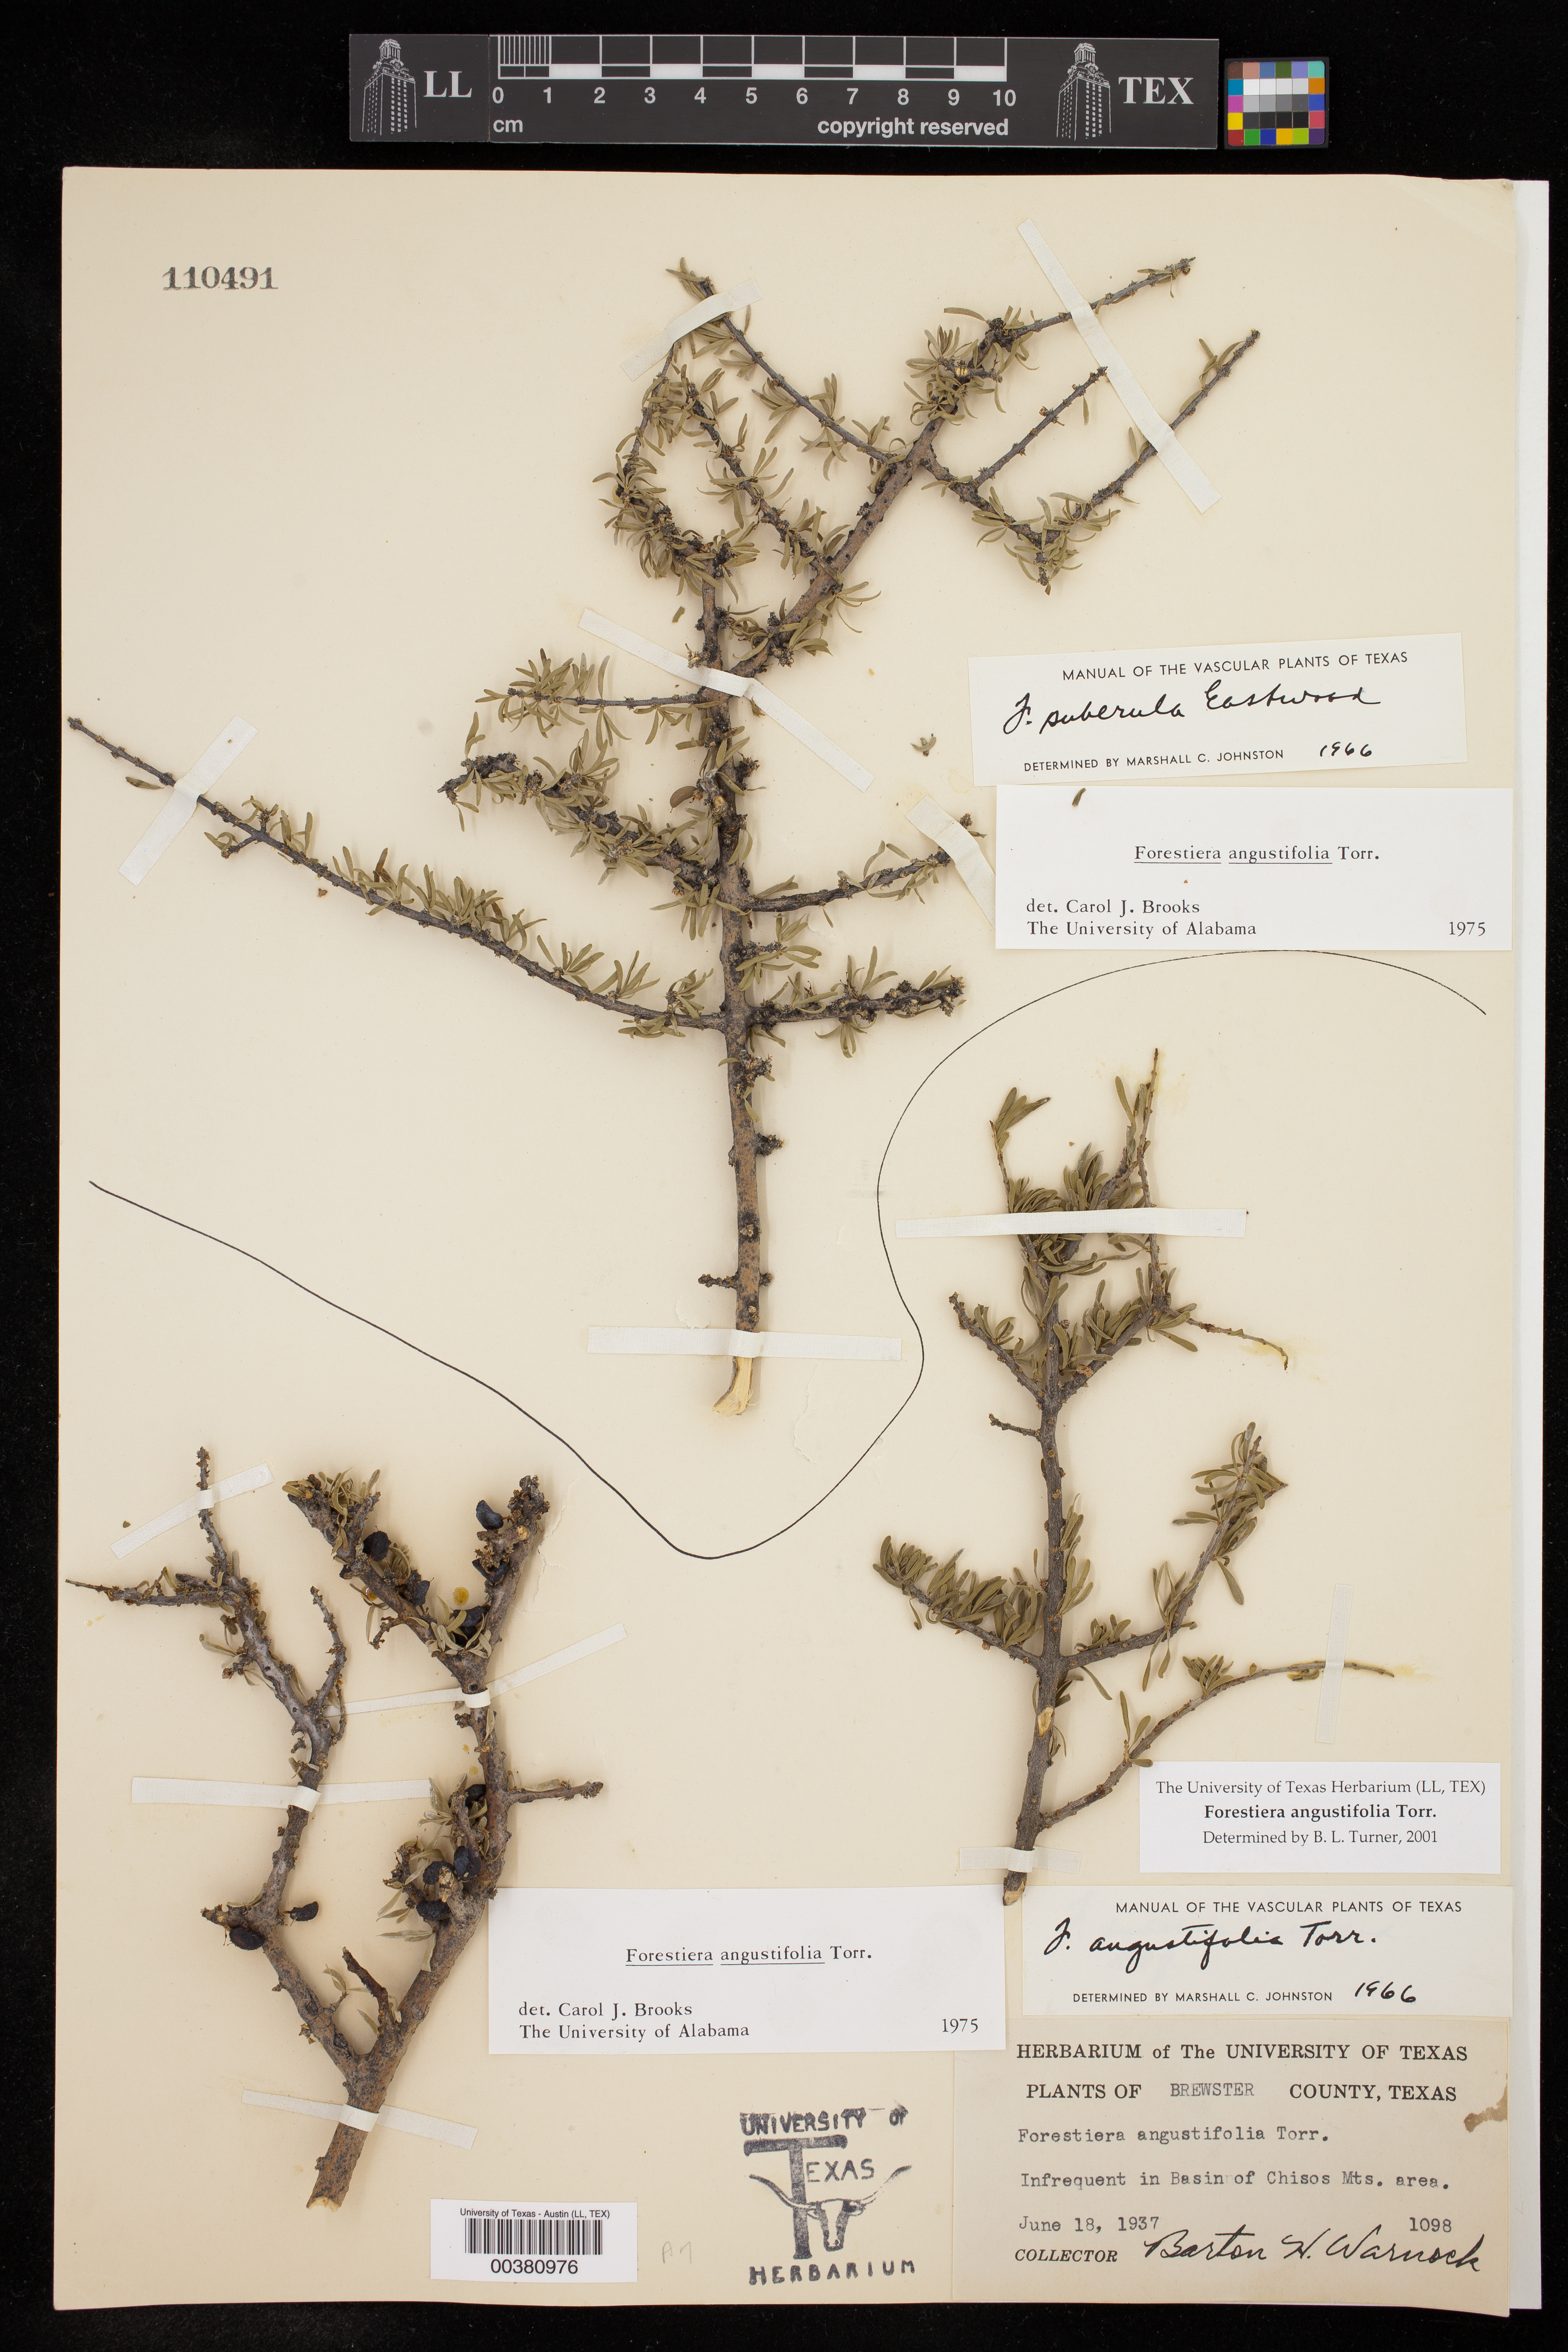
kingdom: Plantae
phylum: Tracheophyta
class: Magnoliopsida
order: Lamiales
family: Oleaceae
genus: Forestiera
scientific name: Forestiera angustifolia
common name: Elbowbush
